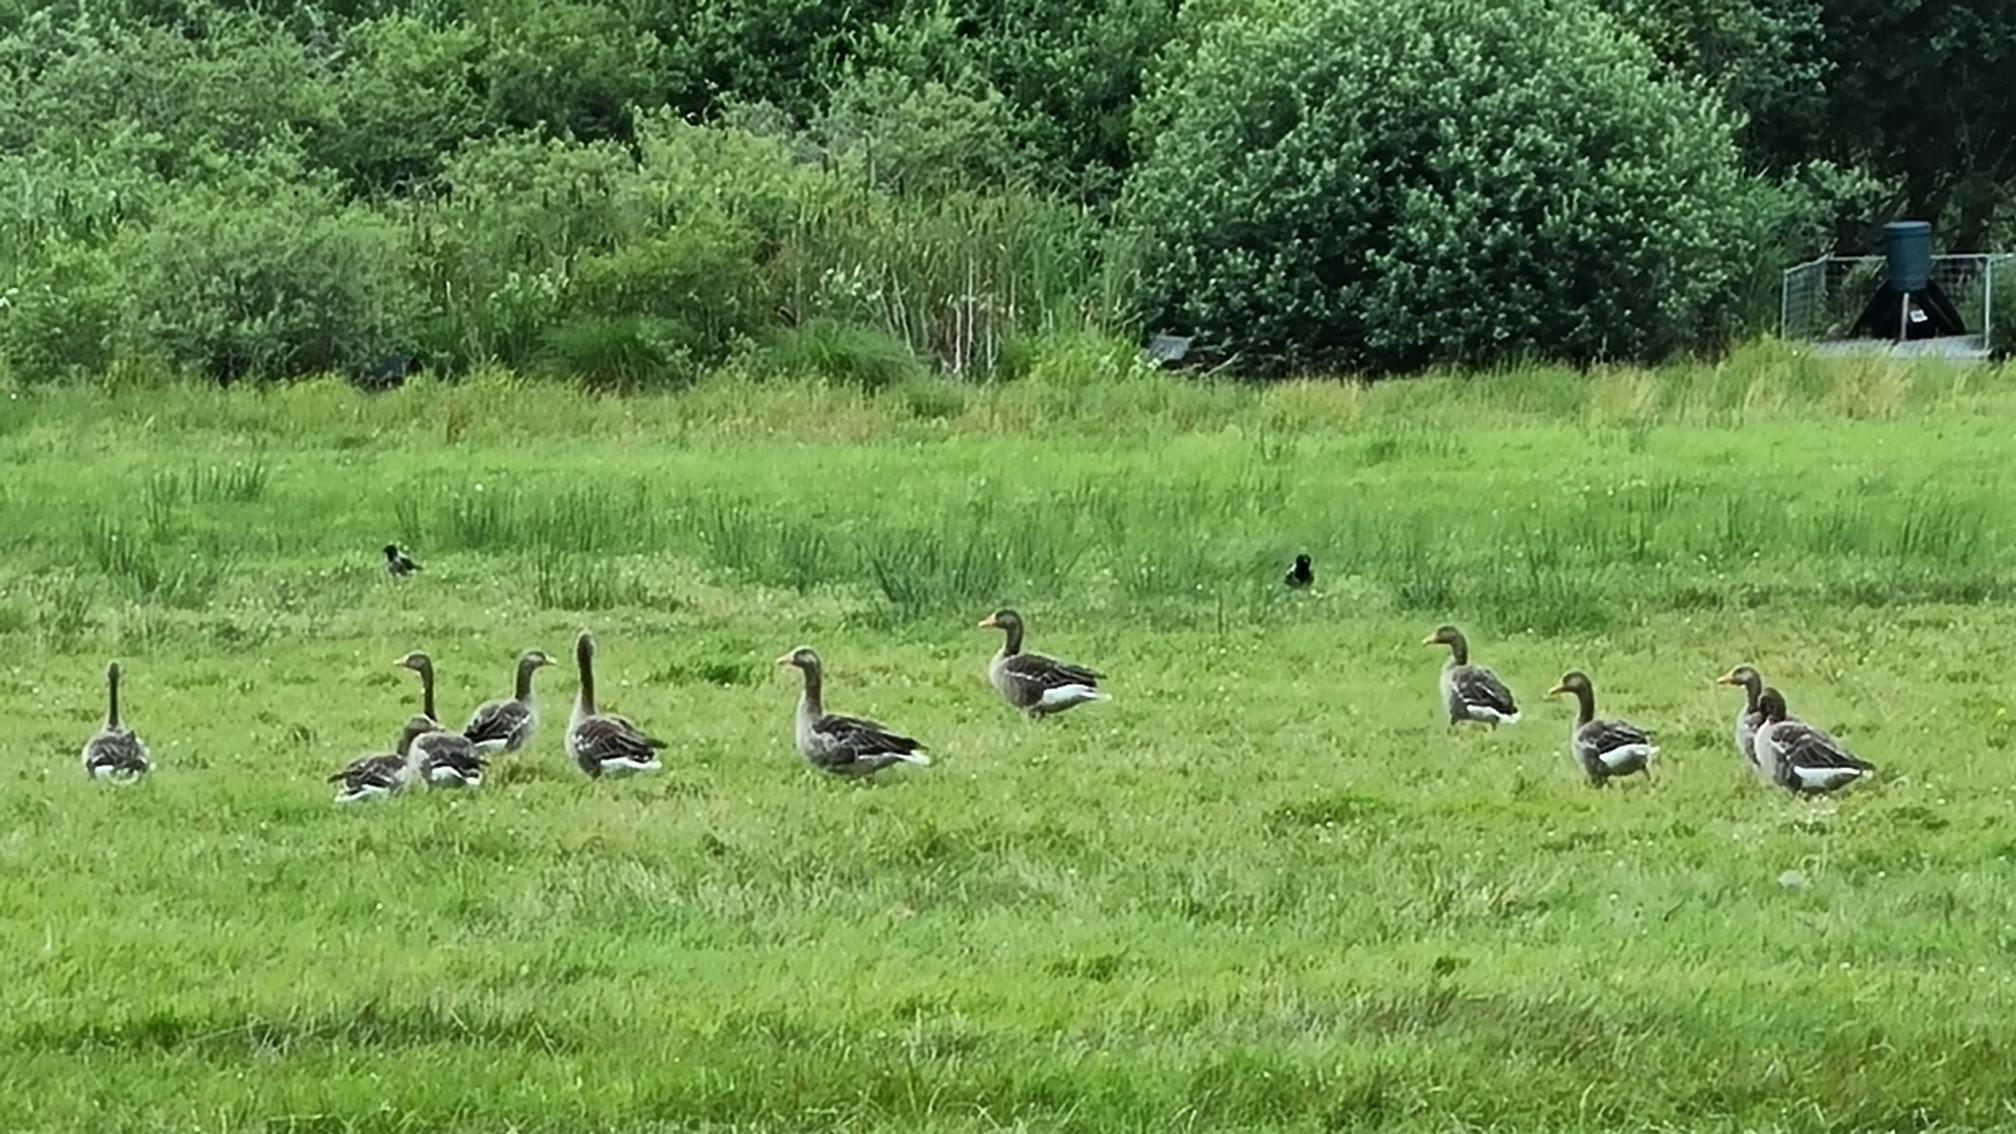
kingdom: Animalia
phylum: Chordata
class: Aves
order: Anseriformes
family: Anatidae
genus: Anser
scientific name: Anser anser
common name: Grågås
